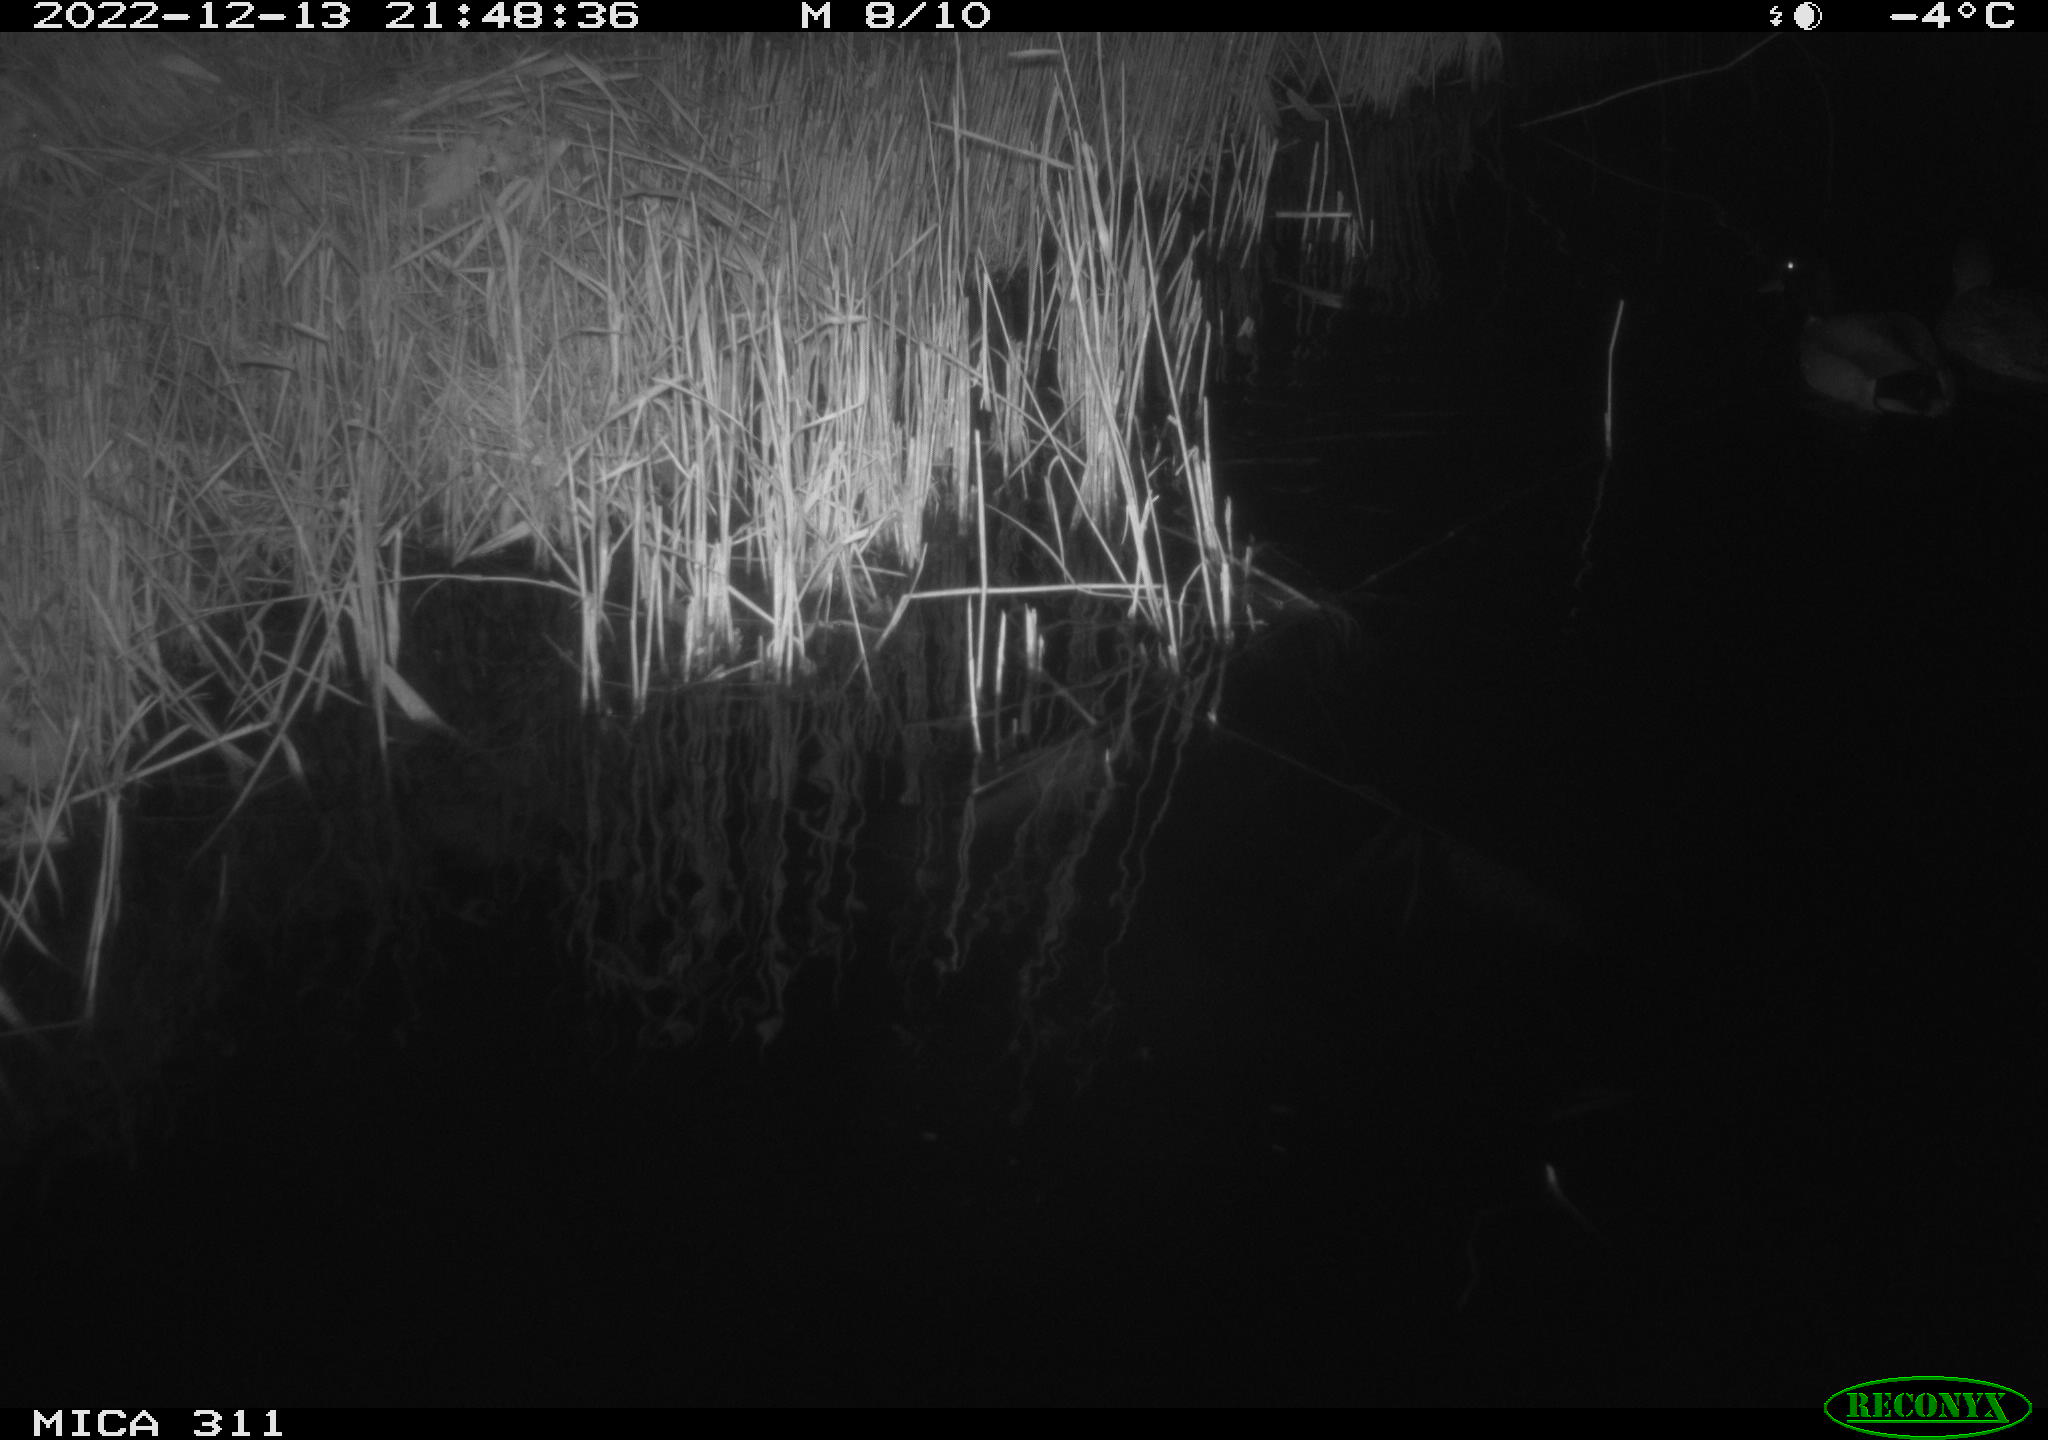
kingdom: Animalia
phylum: Chordata
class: Aves
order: Anseriformes
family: Anatidae
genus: Anas
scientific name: Anas
